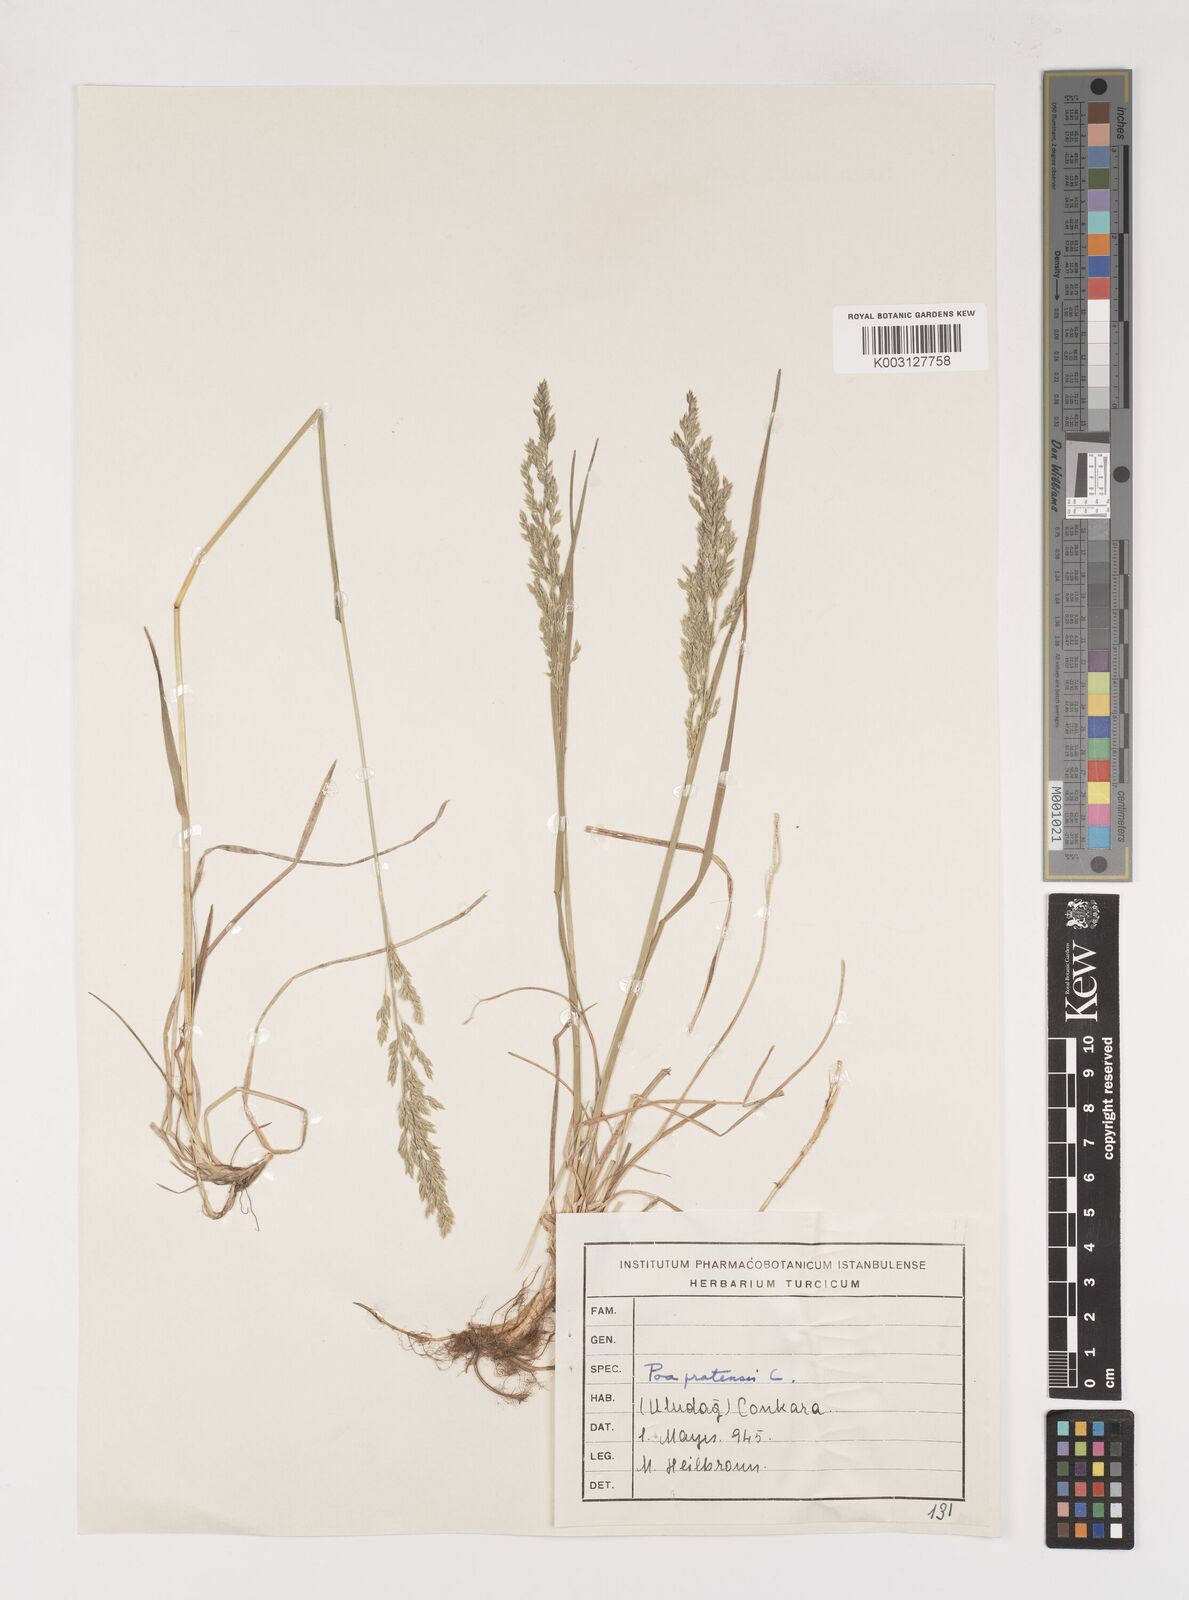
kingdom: Plantae
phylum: Tracheophyta
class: Liliopsida
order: Poales
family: Poaceae
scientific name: Poaceae
